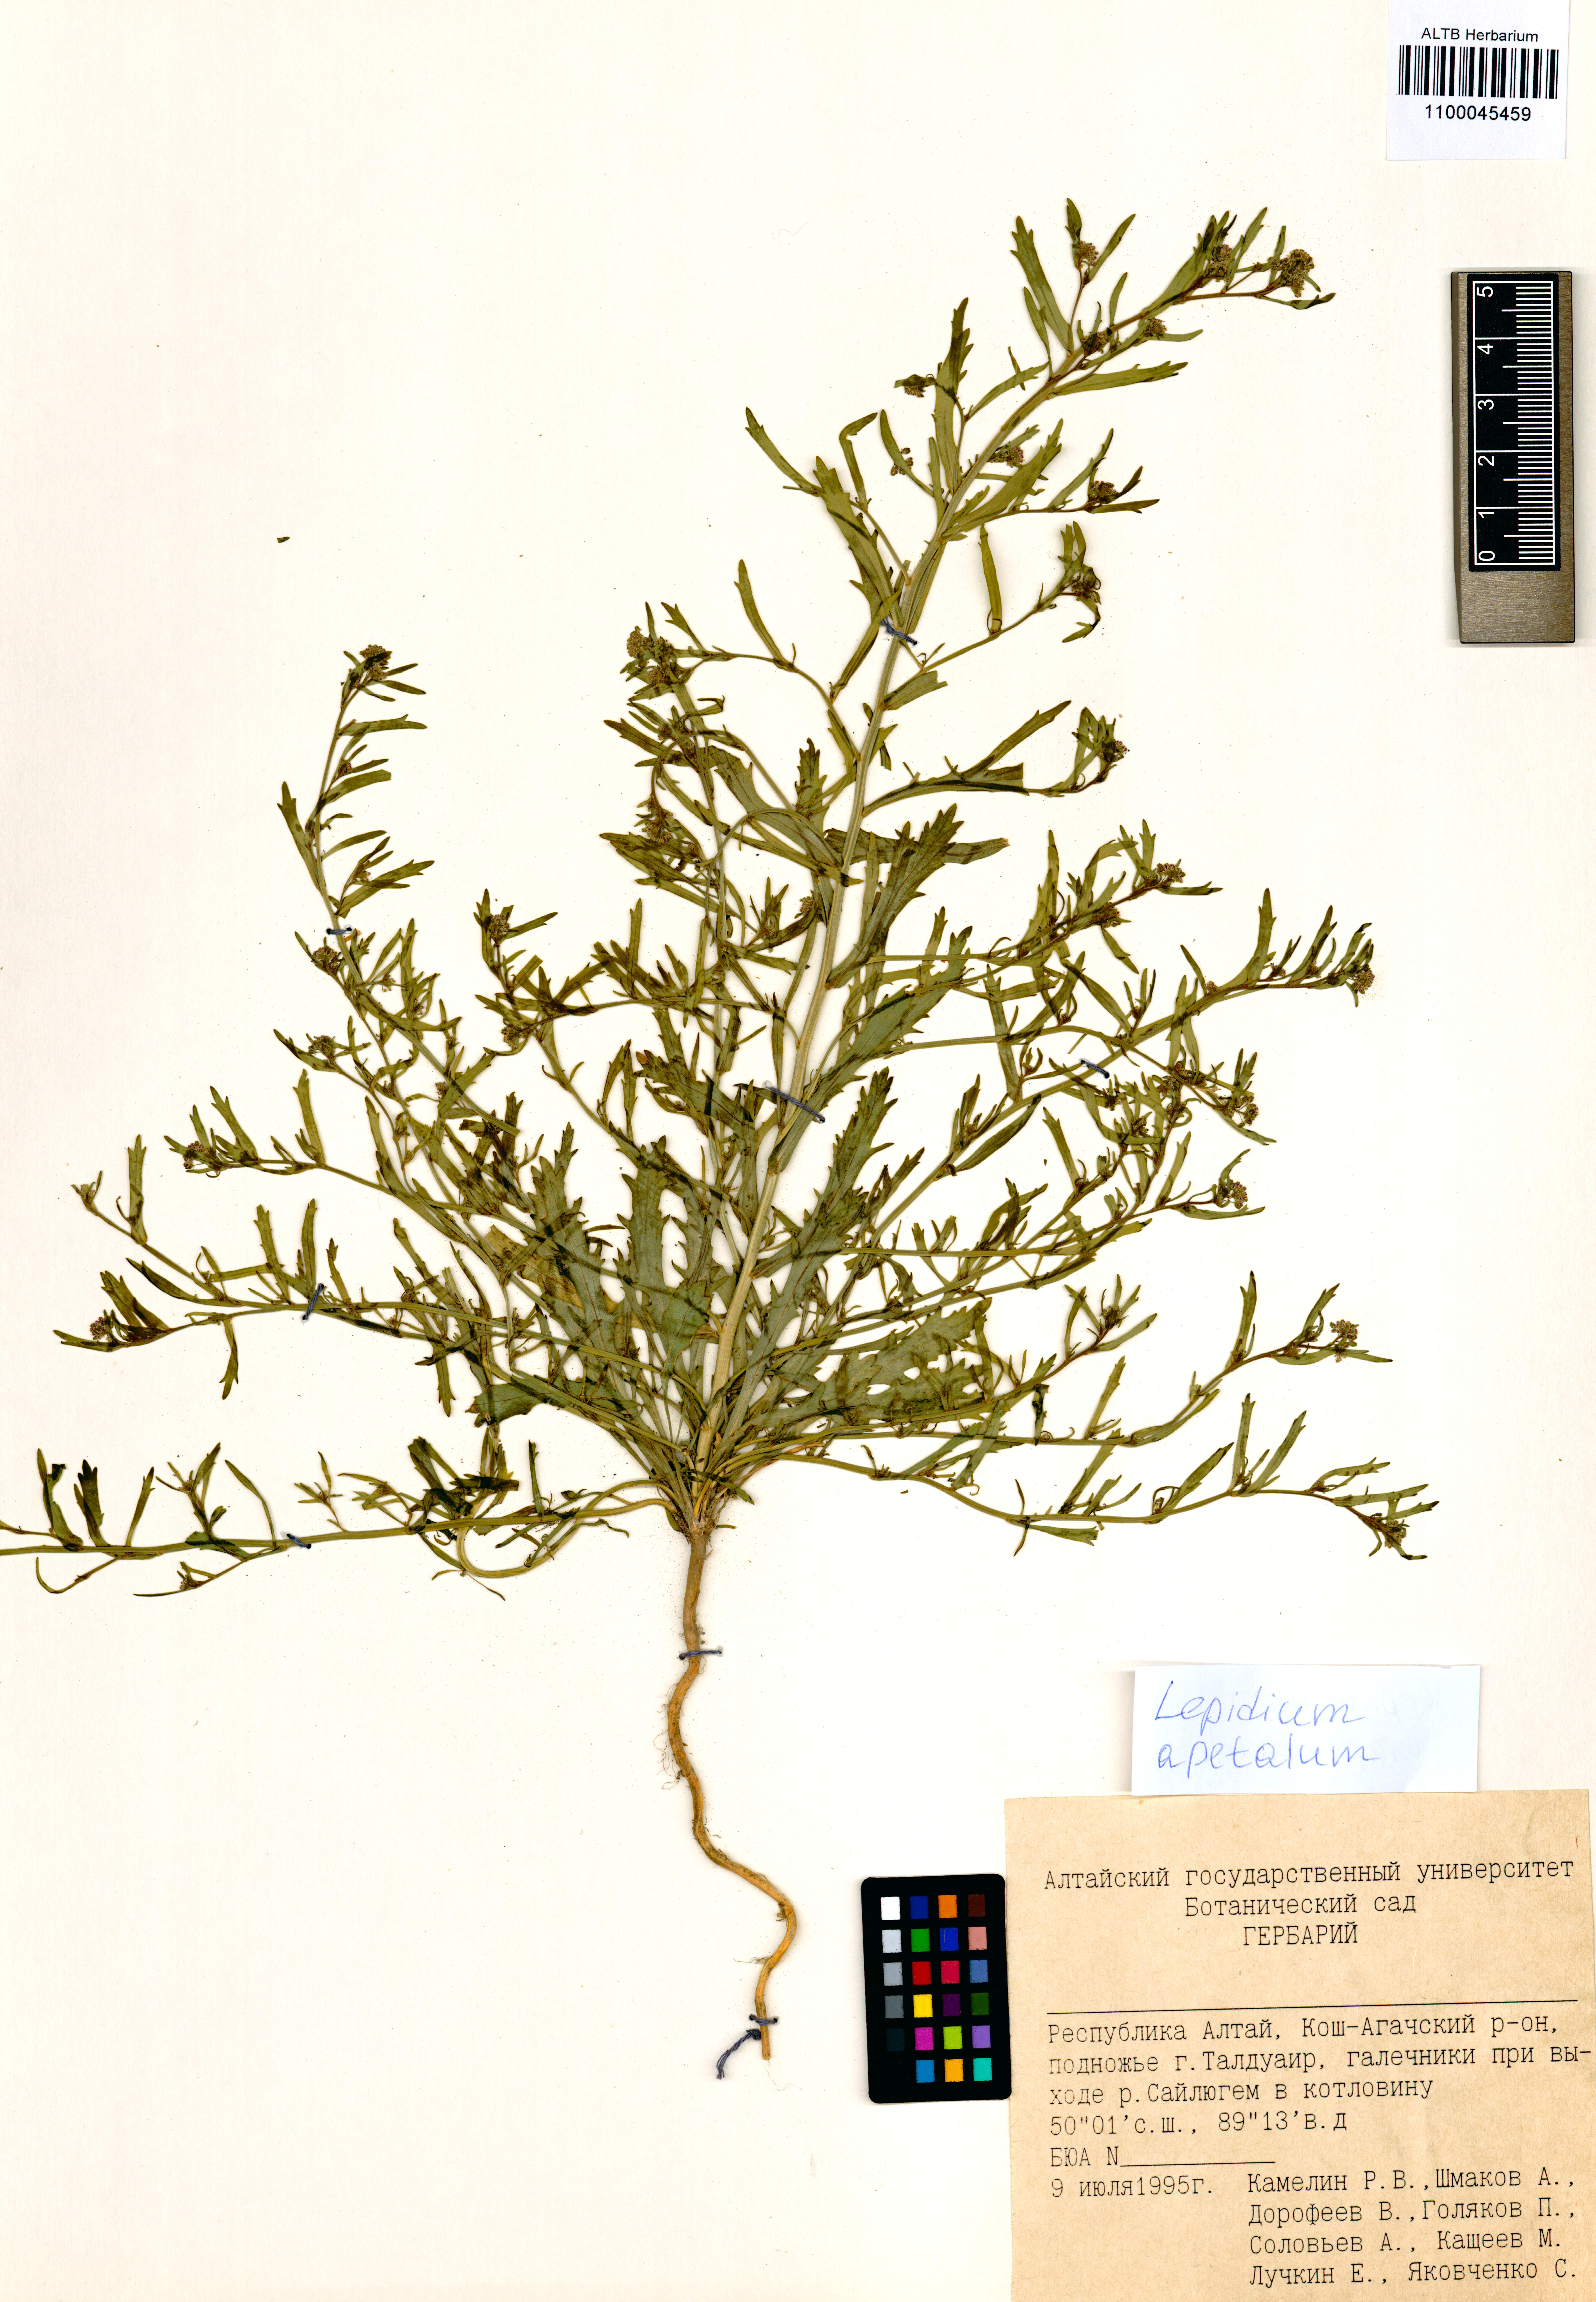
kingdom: Plantae
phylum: Tracheophyta
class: Magnoliopsida
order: Brassicales
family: Brassicaceae
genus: Lepidium
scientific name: Lepidium apetalum
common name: Pepperweed
